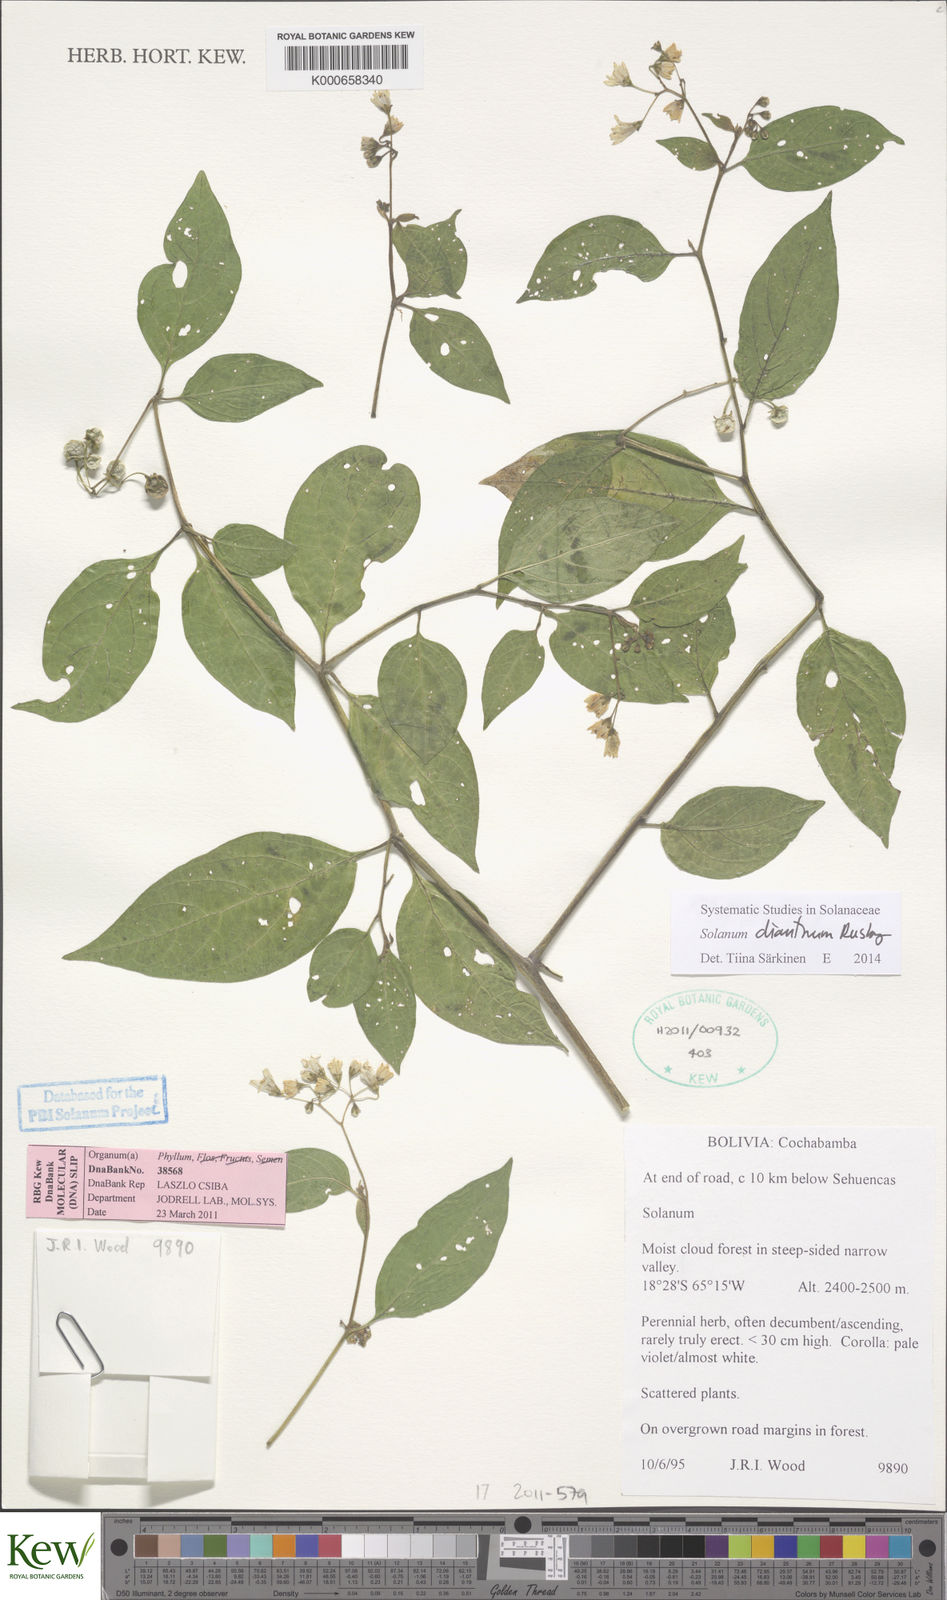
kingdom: Plantae
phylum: Tracheophyta
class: Magnoliopsida
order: Solanales
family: Solanaceae
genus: Solanum
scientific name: Solanum dianthum
